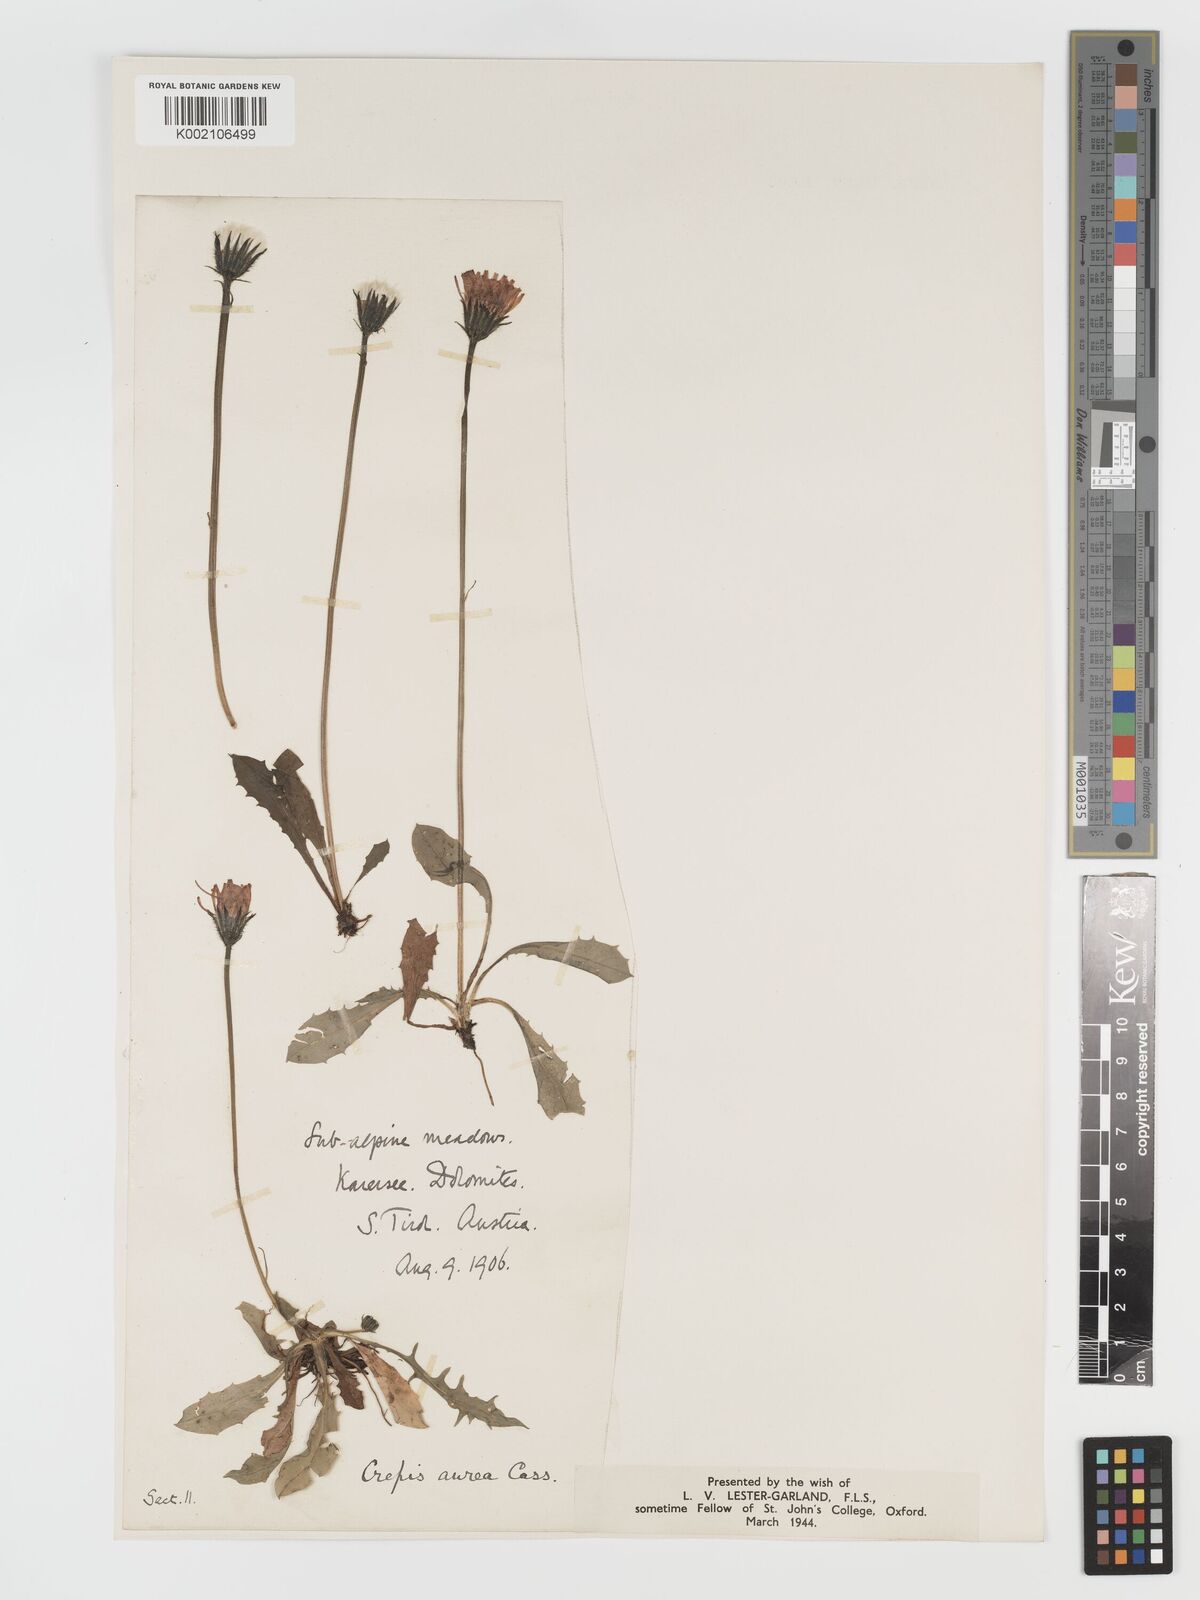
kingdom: Plantae
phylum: Tracheophyta
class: Magnoliopsida
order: Asterales
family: Asteraceae
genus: Crepis
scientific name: Crepis aurea
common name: Golden hawk's-beard
